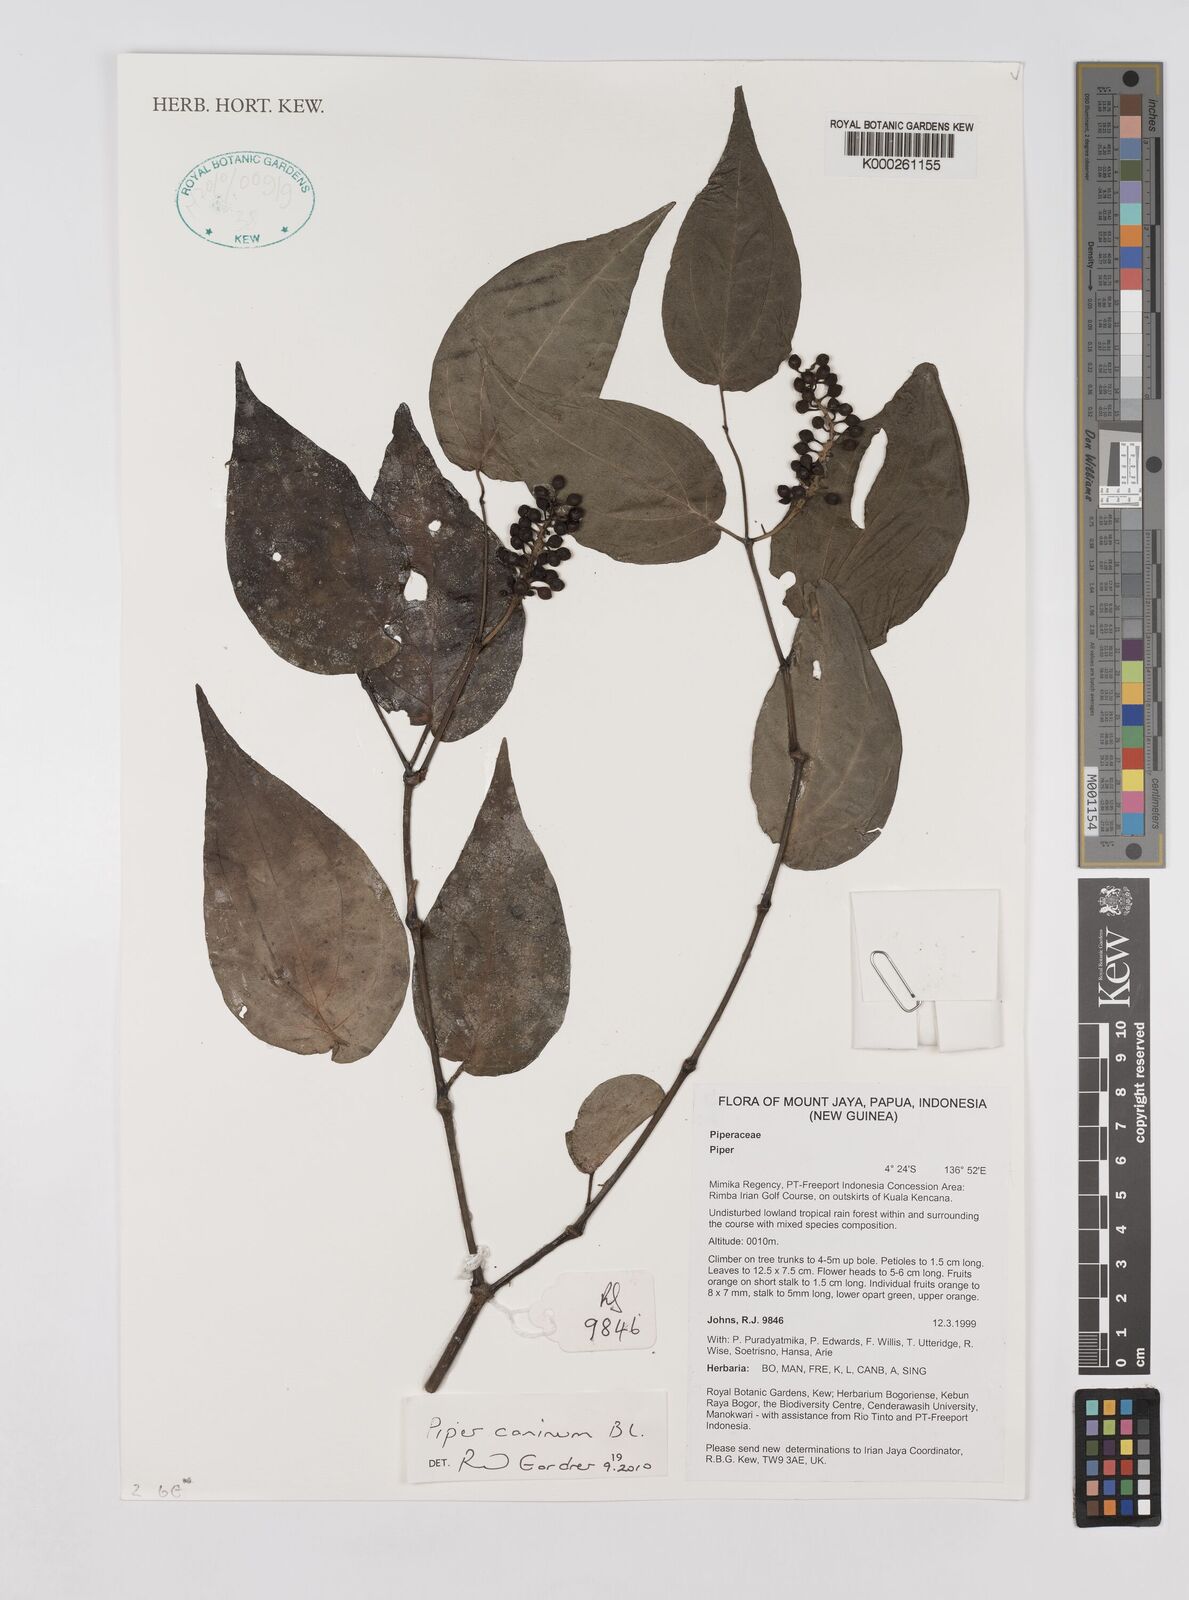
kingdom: Plantae
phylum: Tracheophyta
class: Magnoliopsida
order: Piperales
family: Piperaceae
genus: Piper
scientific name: Piper
